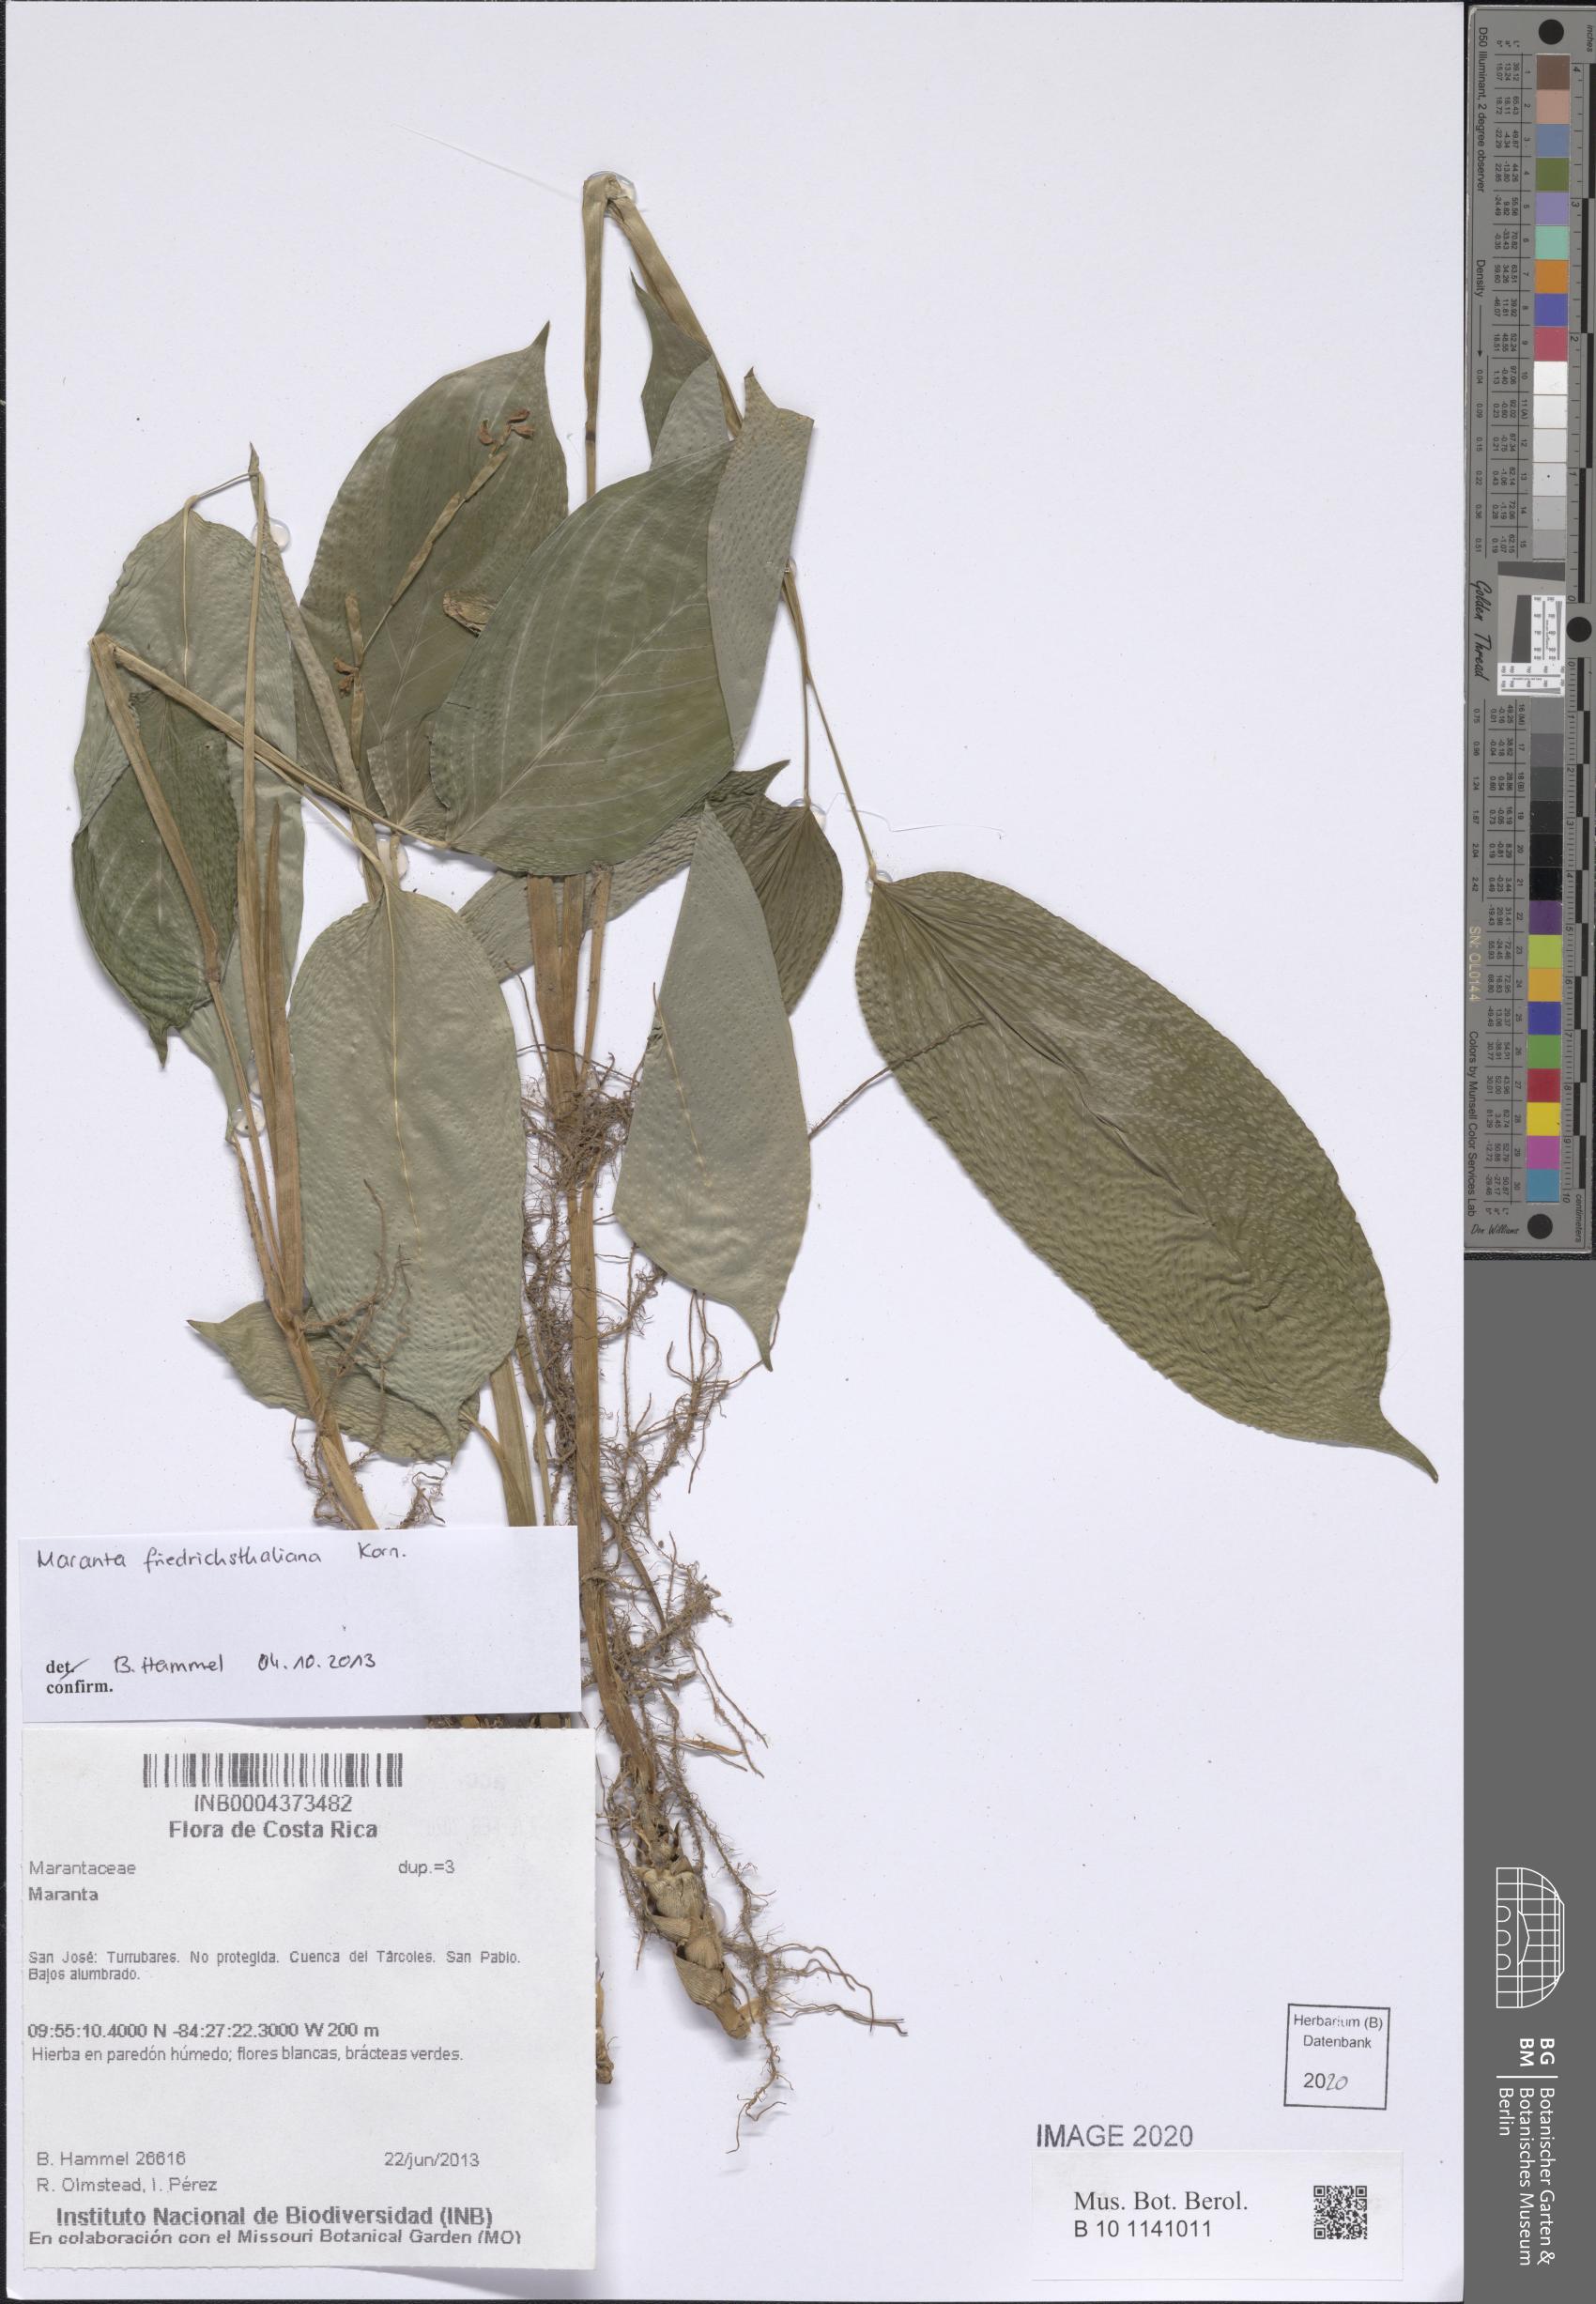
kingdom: Plantae
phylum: Tracheophyta
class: Liliopsida
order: Zingiberales
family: Marantaceae
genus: Maranta
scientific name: Maranta friedrichsthaliana
